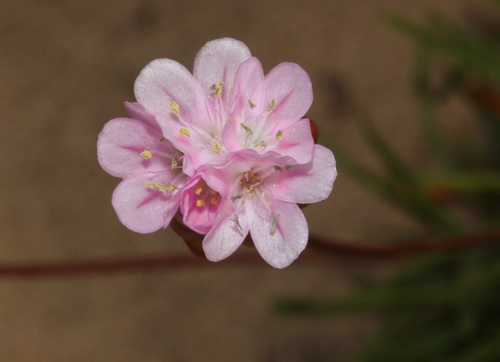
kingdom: Plantae
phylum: Tracheophyta
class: Magnoliopsida
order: Caryophyllales
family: Plumbaginaceae
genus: Armeria
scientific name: Armeria pungens
